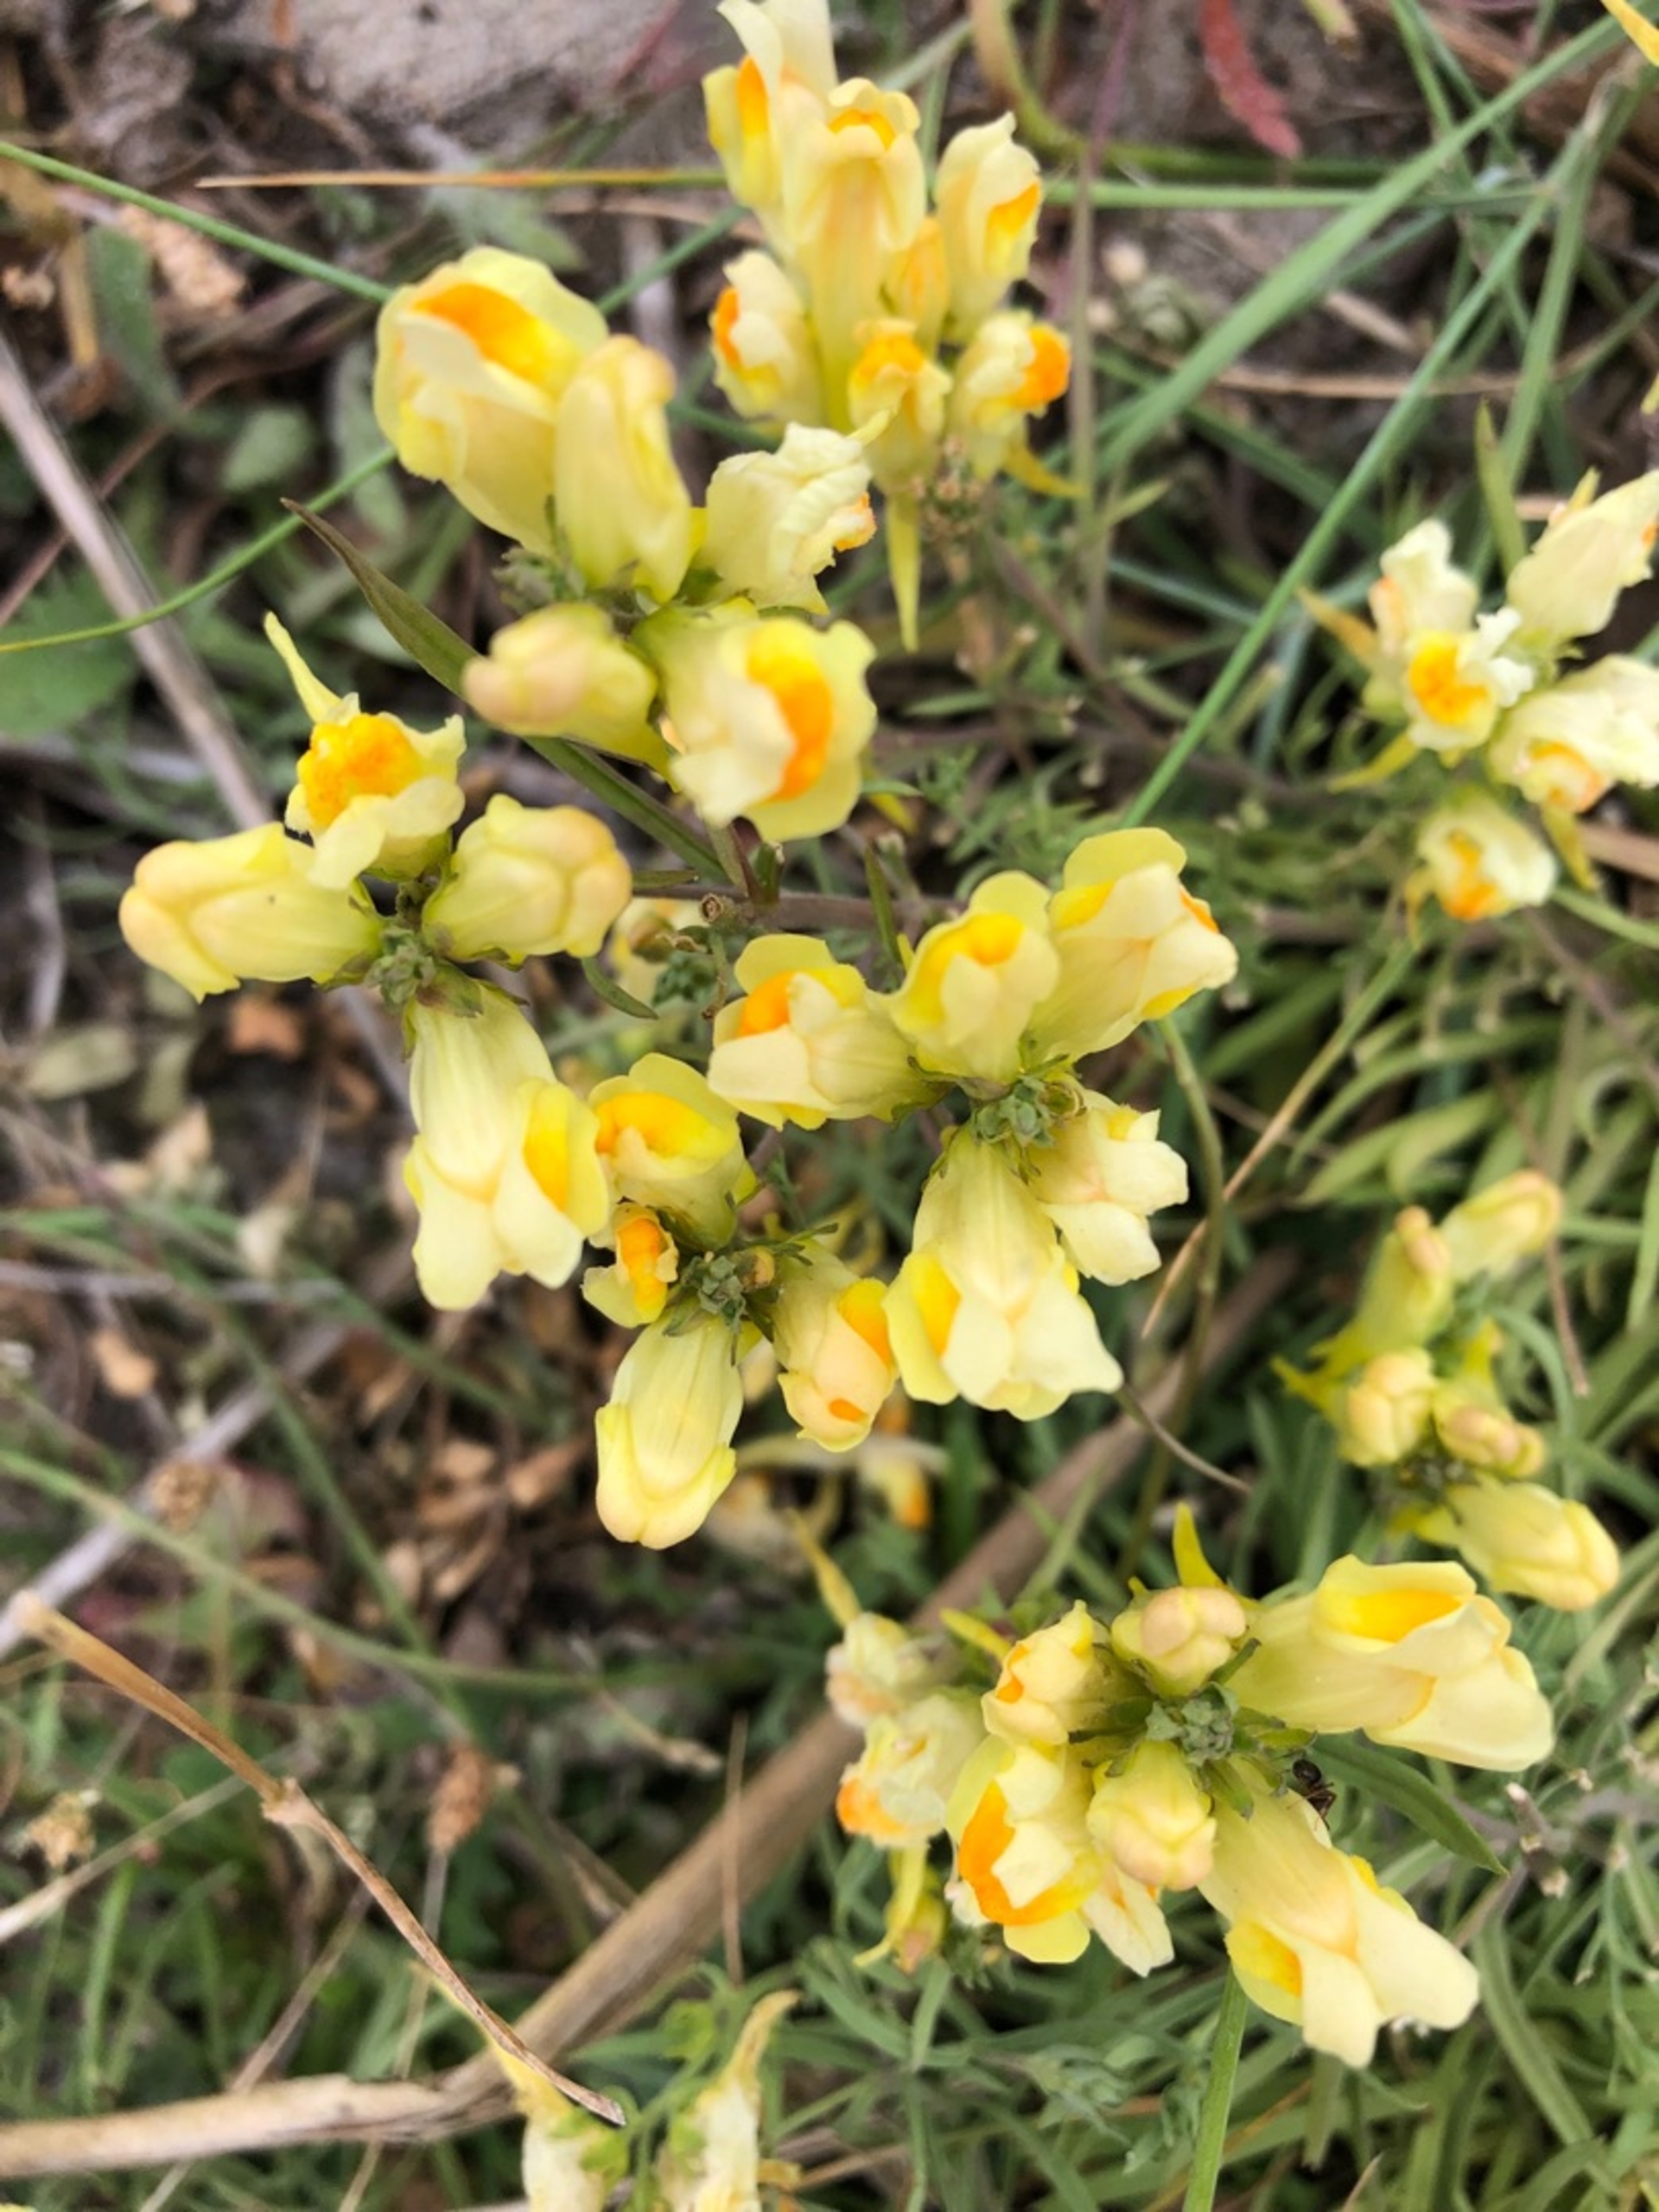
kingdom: Plantae
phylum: Tracheophyta
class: Magnoliopsida
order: Lamiales
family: Plantaginaceae
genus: Linaria
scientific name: Linaria vulgaris
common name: Almindelig torskemund
